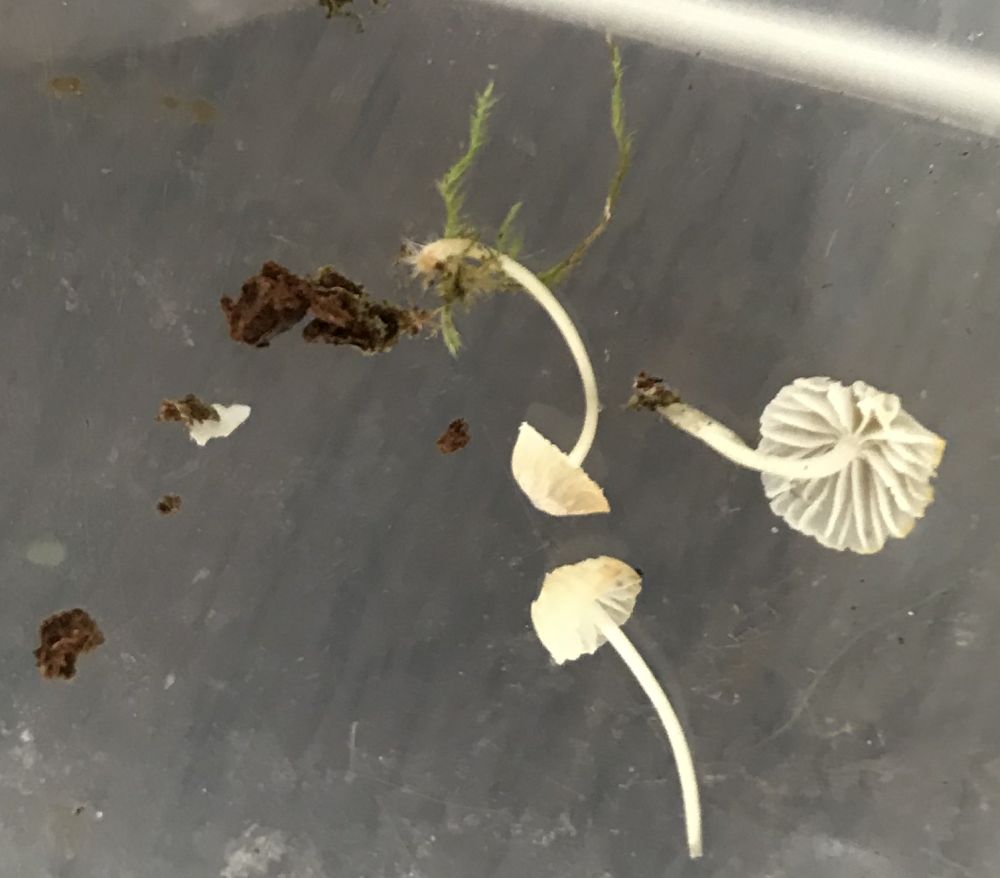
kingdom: Fungi
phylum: Basidiomycota
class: Agaricomycetes
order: Agaricales
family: Porotheleaceae
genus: Phloeomana
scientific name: Phloeomana hiemalis
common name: sen huesvamp
